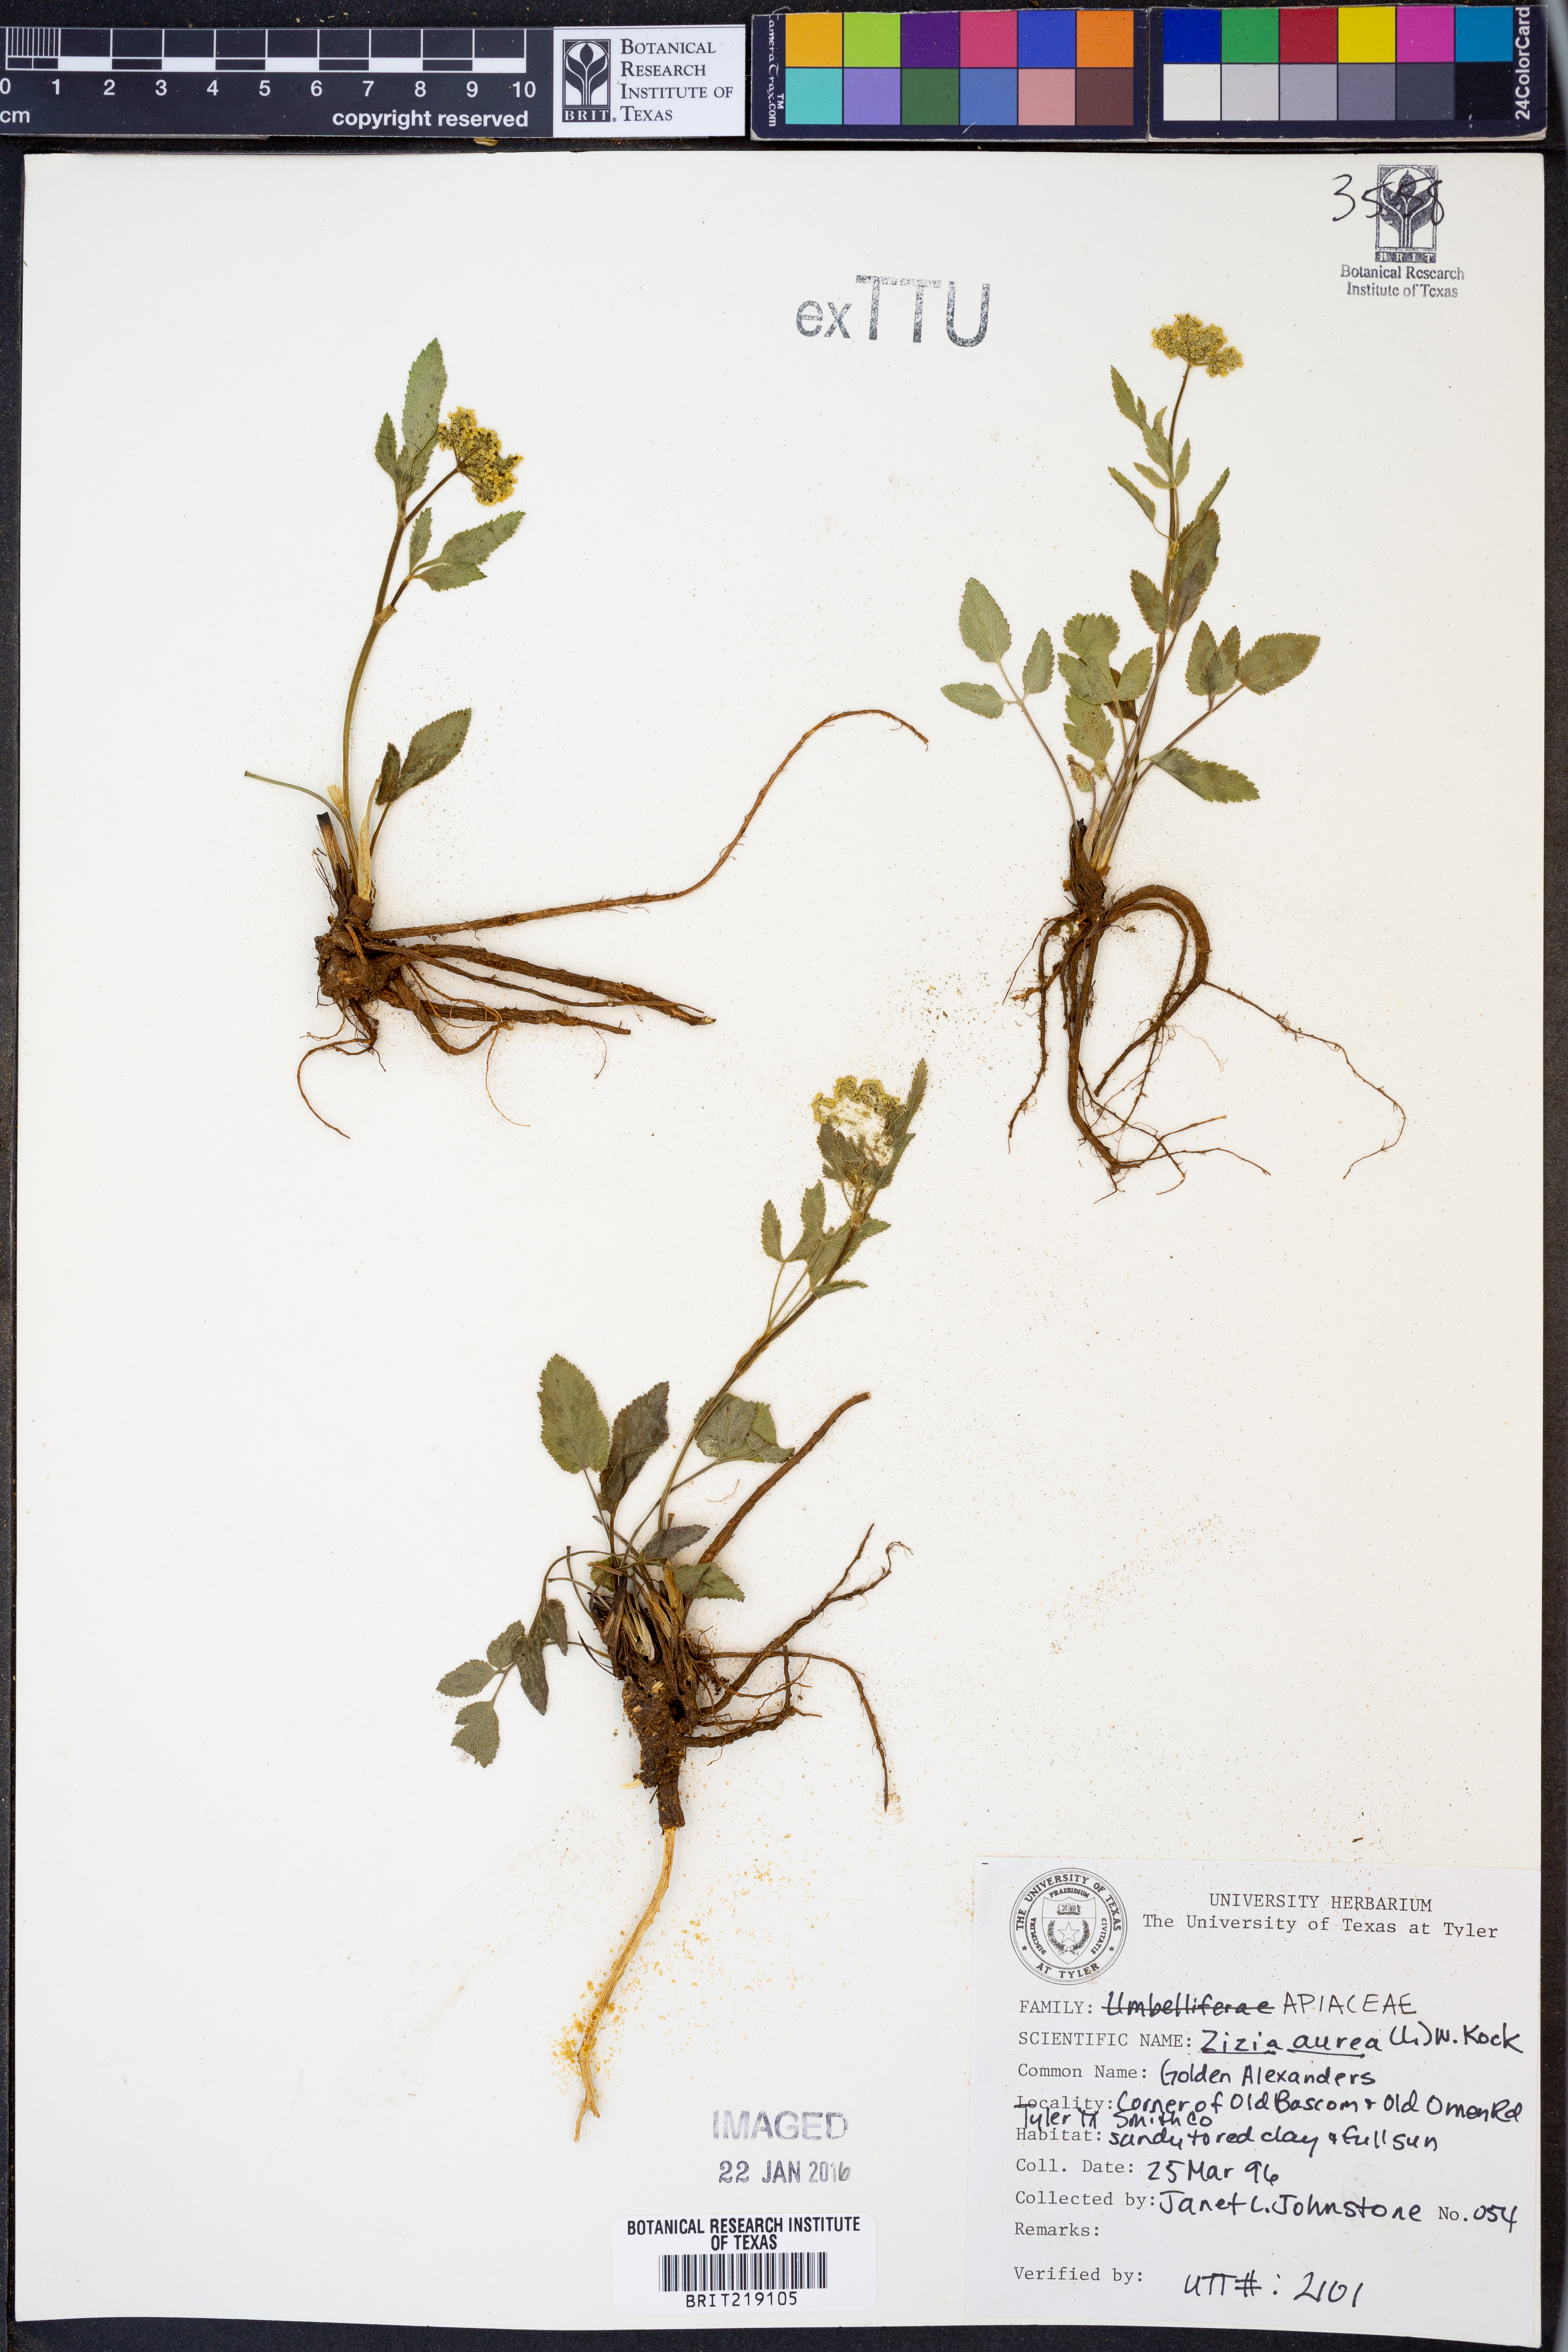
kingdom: Plantae
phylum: Tracheophyta
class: Magnoliopsida
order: Apiales
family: Apiaceae
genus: Zizia
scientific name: Zizia aurea
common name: Golden alexanders
